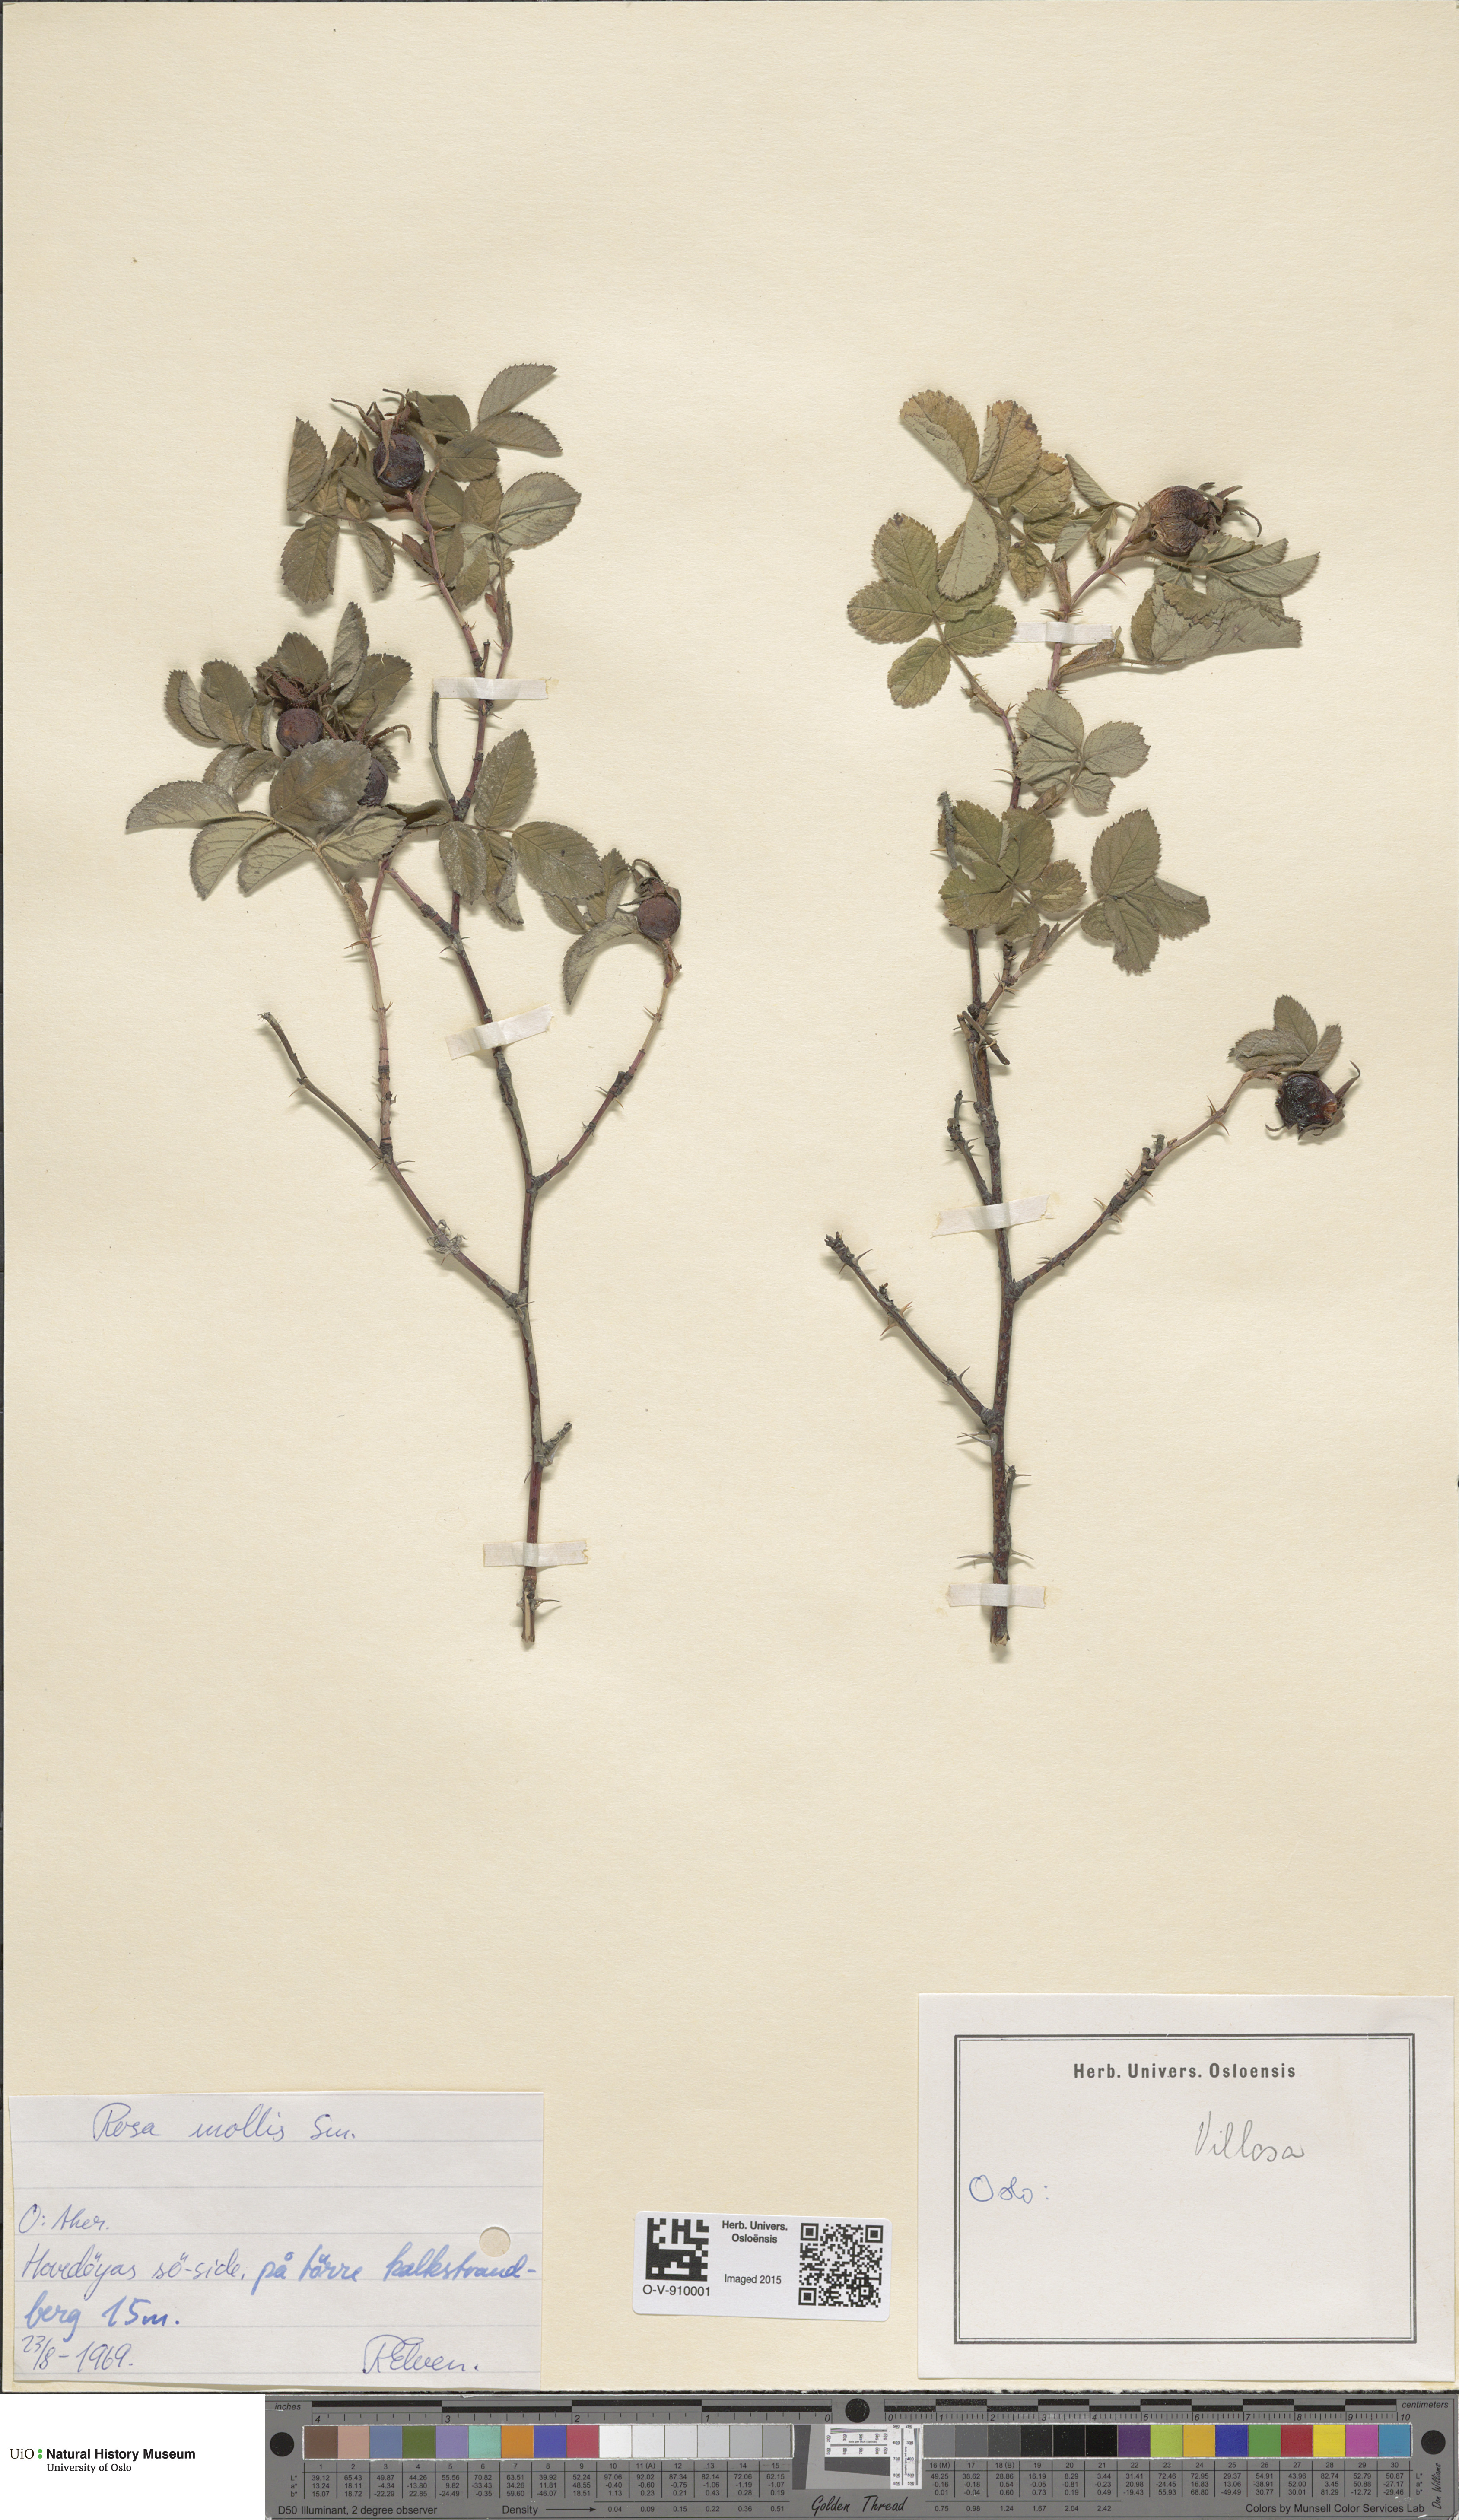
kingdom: Plantae
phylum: Tracheophyta
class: Magnoliopsida
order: Rosales
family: Rosaceae
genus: Rosa
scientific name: Rosa mollis
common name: Rose
